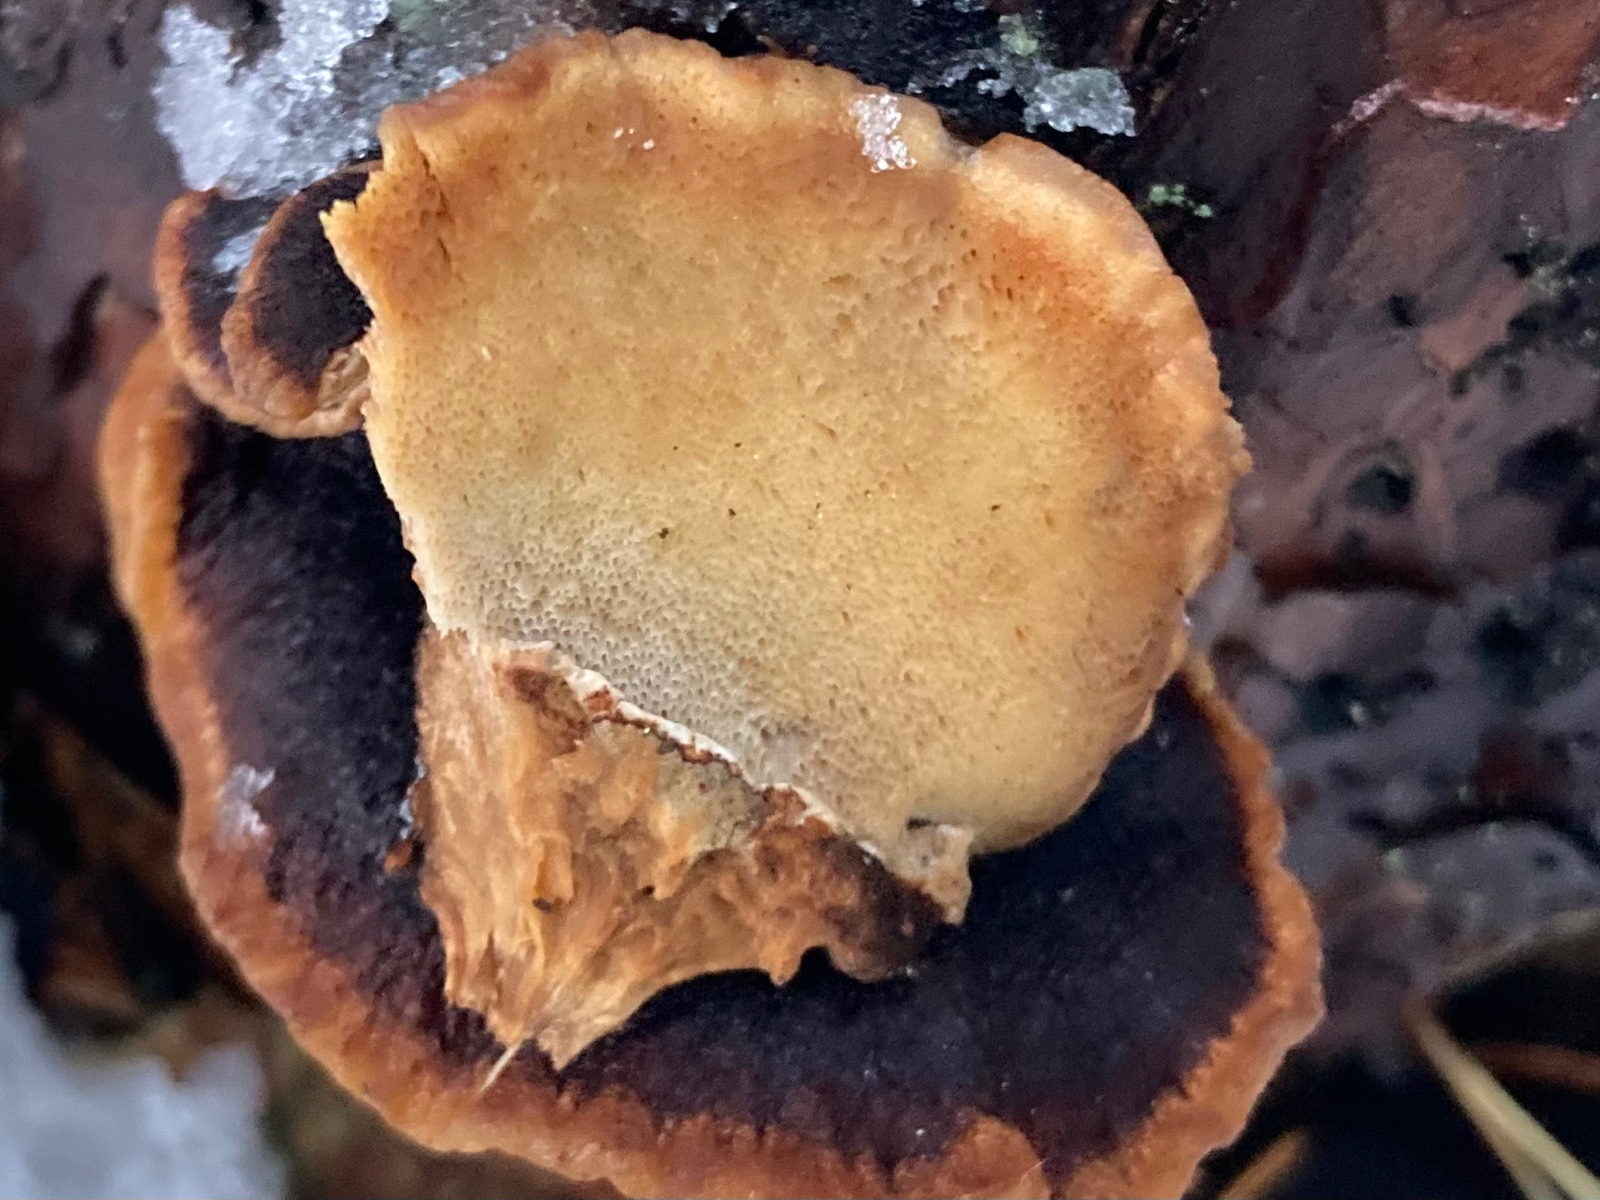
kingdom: Fungi
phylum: Basidiomycota
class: Agaricomycetes
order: Polyporales
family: Ischnodermataceae
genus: Ischnoderma
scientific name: Ischnoderma benzoinum
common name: gran-tjæreporesvamp
